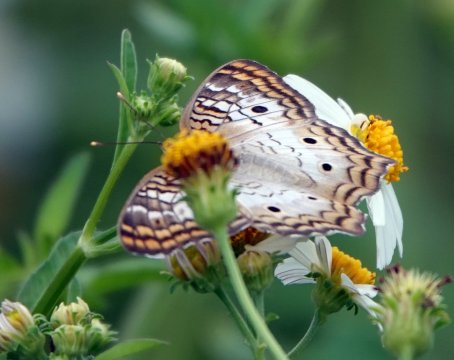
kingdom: Animalia
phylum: Arthropoda
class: Insecta
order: Lepidoptera
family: Nymphalidae
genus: Anartia
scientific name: Anartia jatrophae
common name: White Peacock
